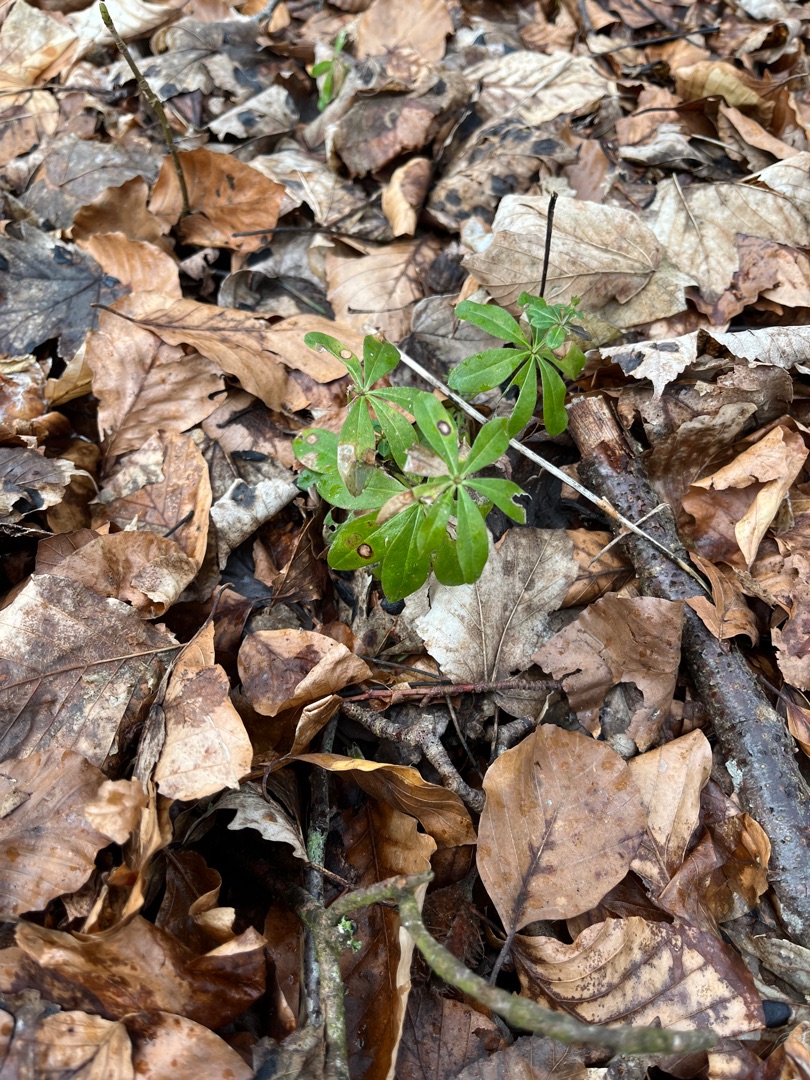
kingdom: Plantae
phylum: Tracheophyta
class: Magnoliopsida
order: Gentianales
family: Rubiaceae
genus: Galium
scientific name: Galium odoratum
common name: Skovmærke
